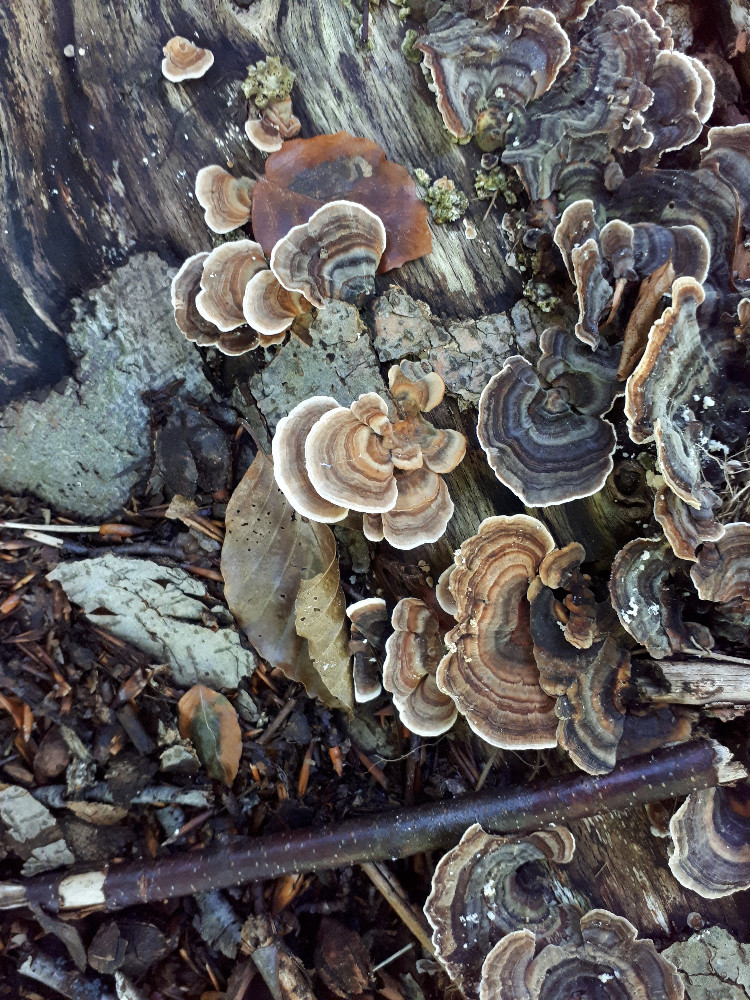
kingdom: Fungi
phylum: Basidiomycota
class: Agaricomycetes
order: Polyporales
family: Polyporaceae
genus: Trametes
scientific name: Trametes versicolor
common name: broget læderporesvamp
